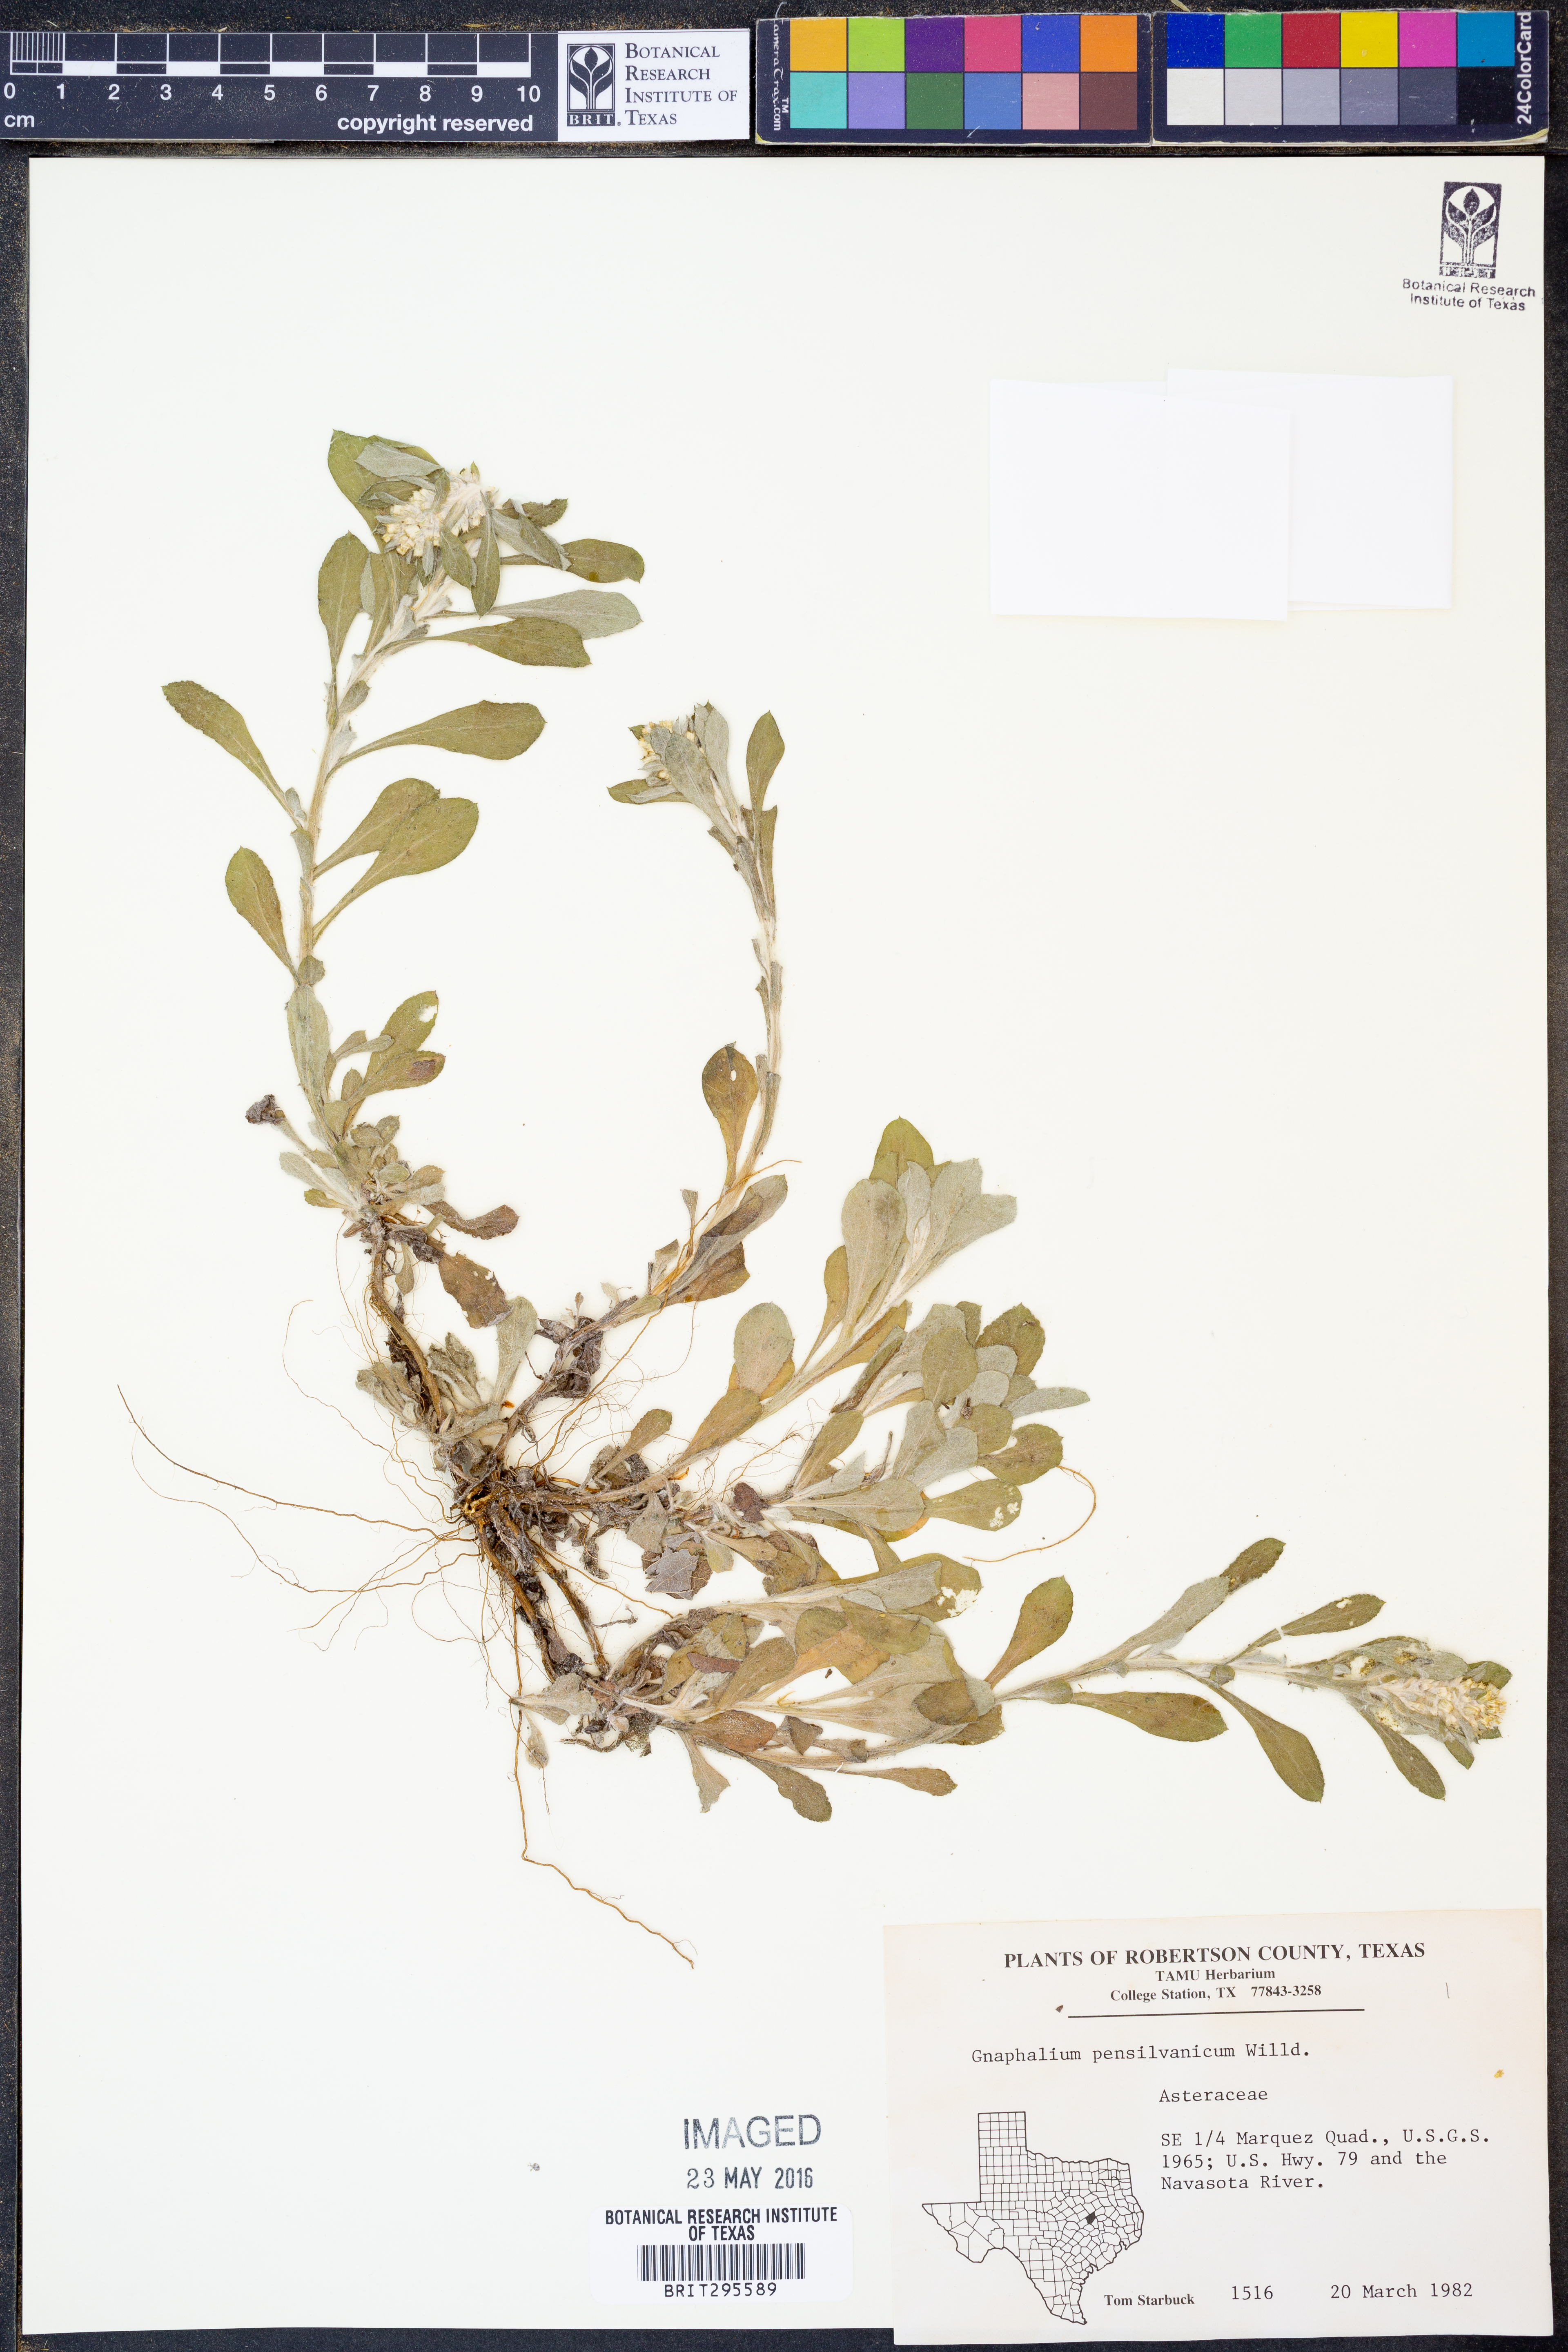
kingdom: Plantae
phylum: Tracheophyta
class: Magnoliopsida
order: Asterales
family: Asteraceae
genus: Gamochaeta
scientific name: Gamochaeta pensylvanica
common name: Pennsylvania everlasting
